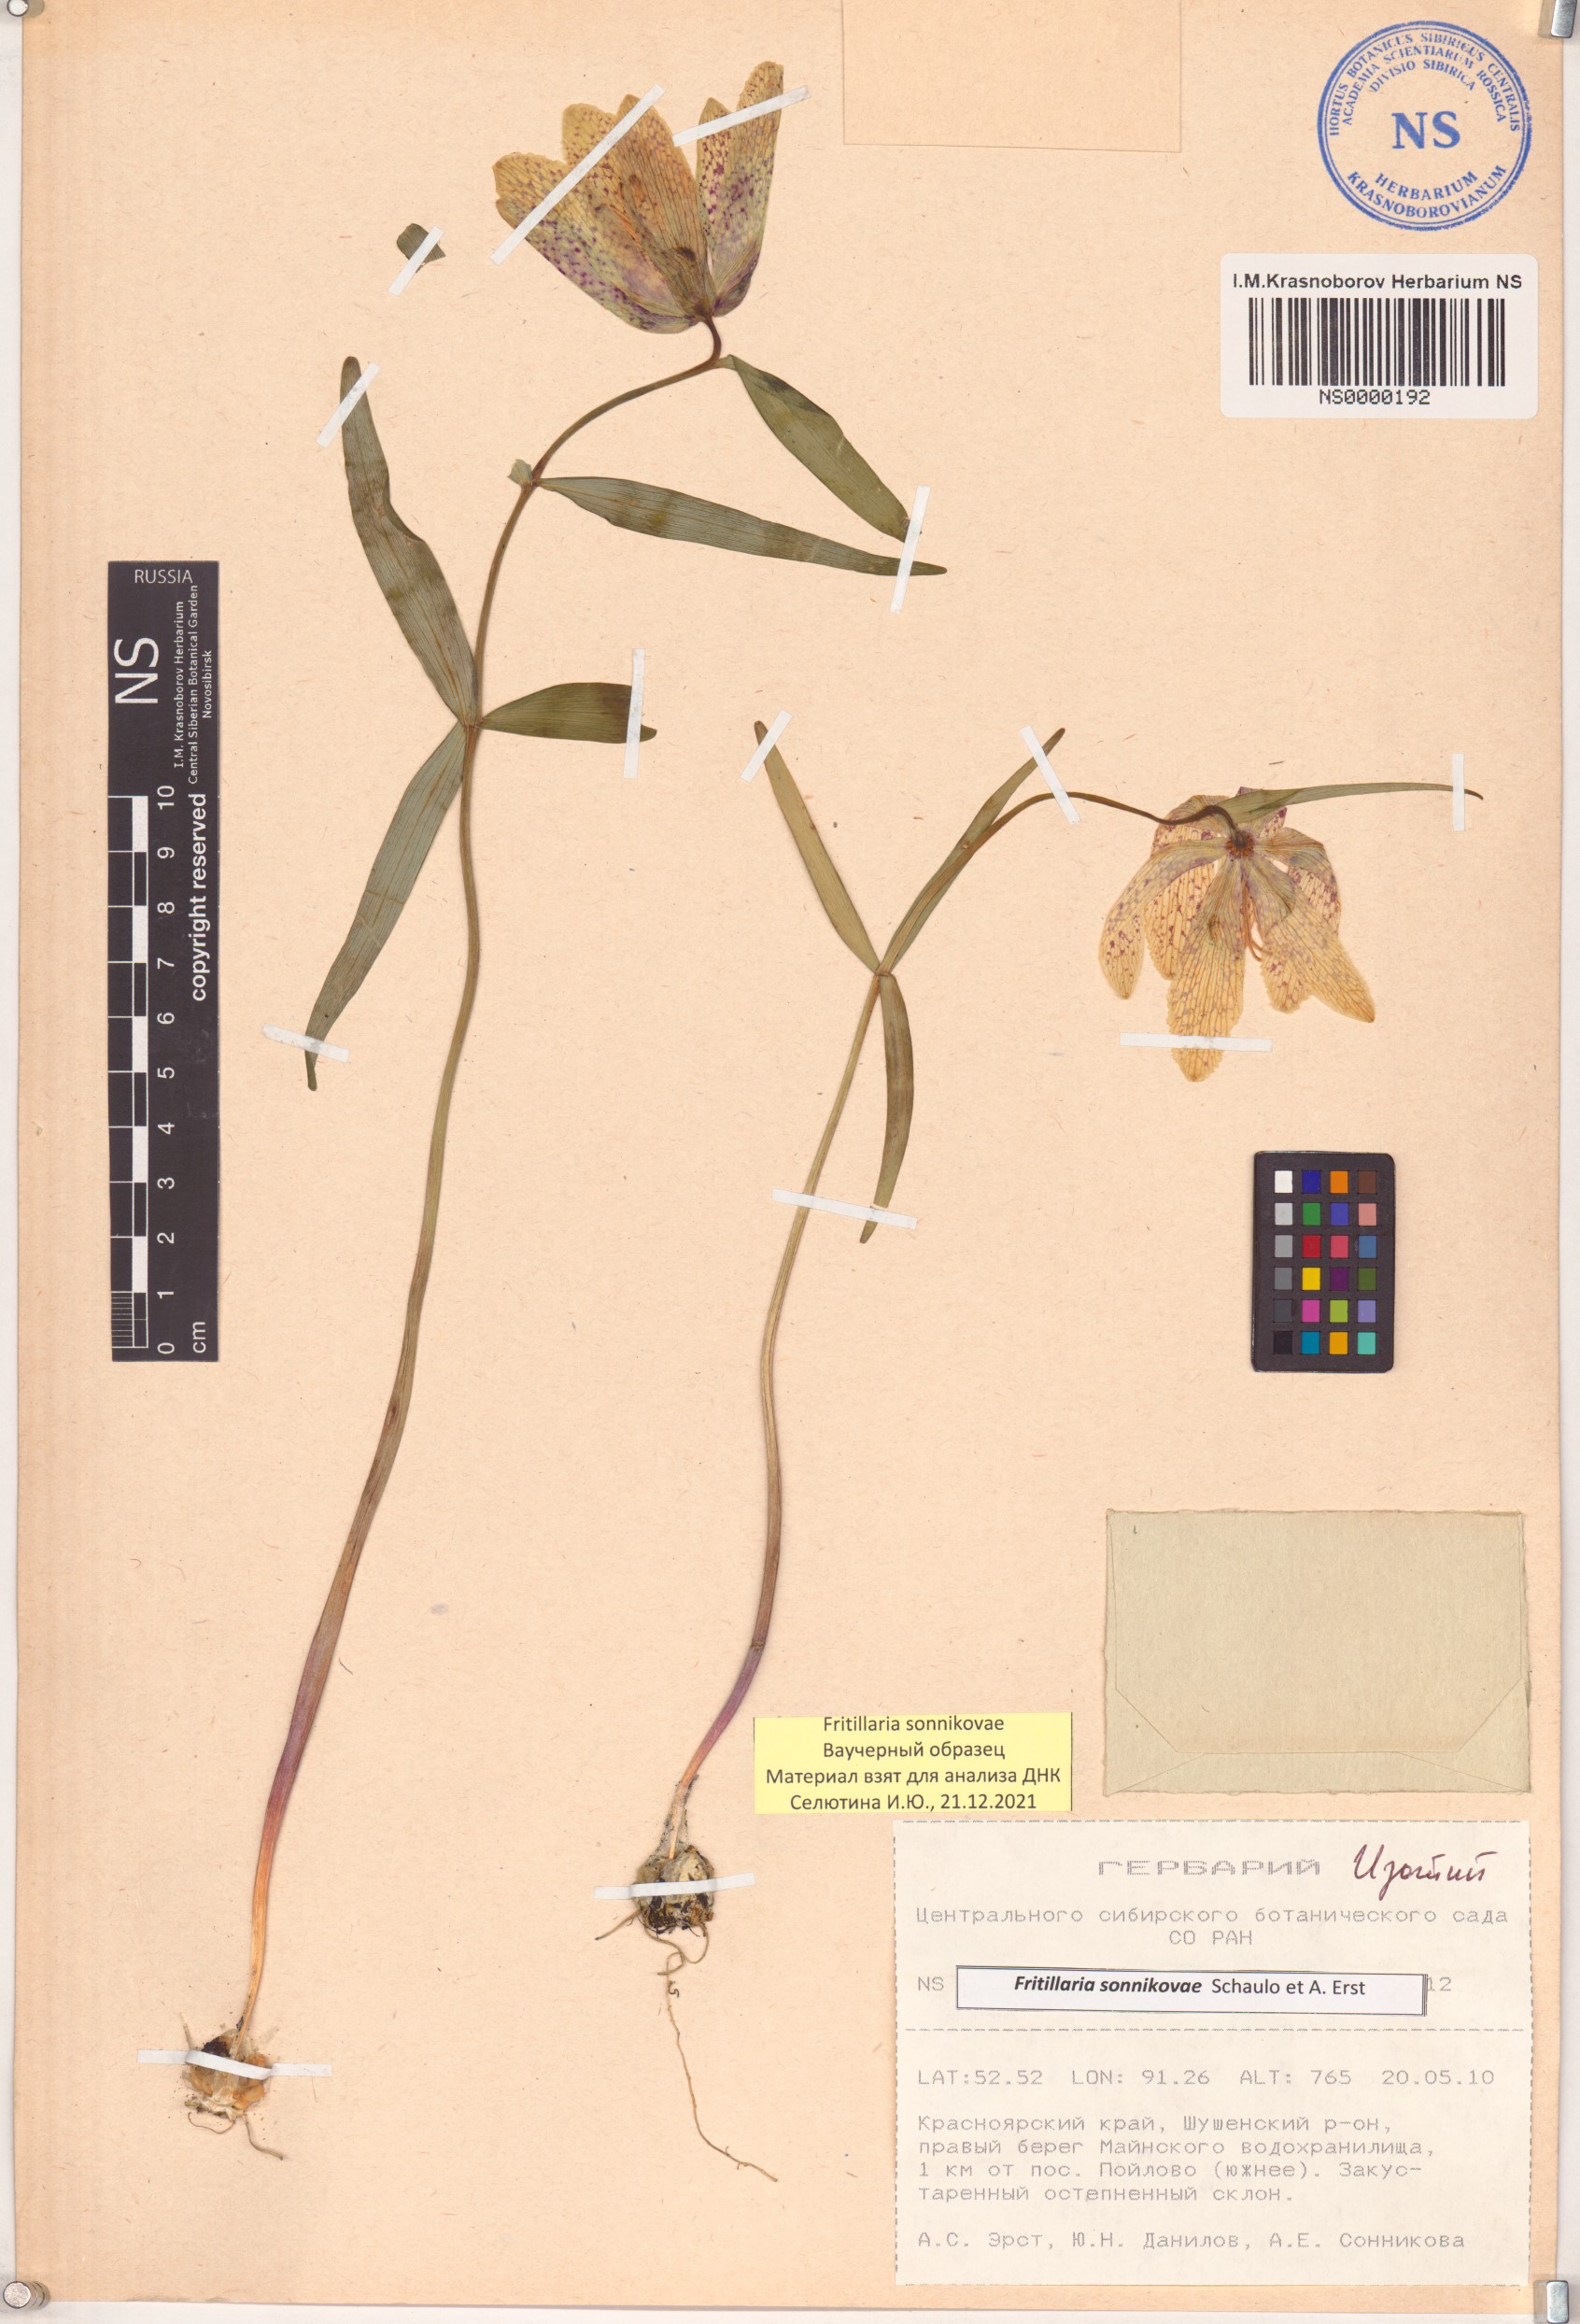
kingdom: Plantae
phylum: Tracheophyta
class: Liliopsida
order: Liliales
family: Liliaceae
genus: Fritillaria
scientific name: Fritillaria sonnikovae
